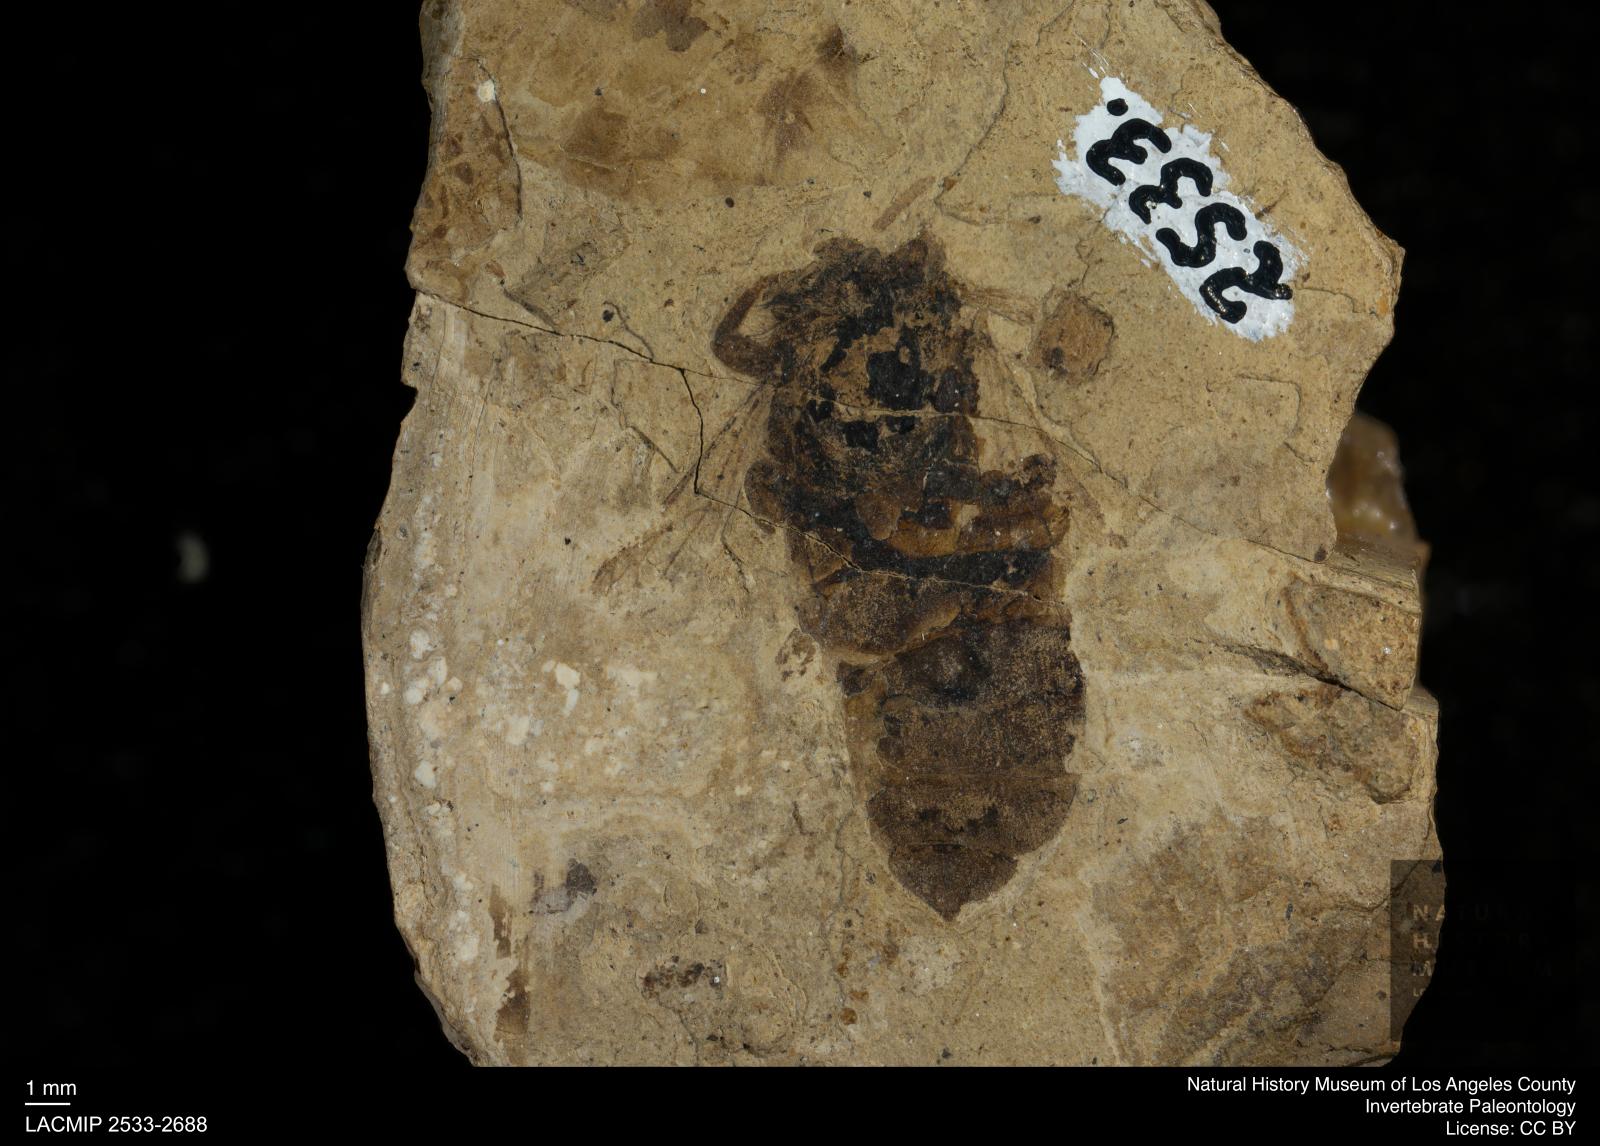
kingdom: Animalia
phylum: Arthropoda
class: Insecta
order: Hymenoptera
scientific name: Hymenoptera
